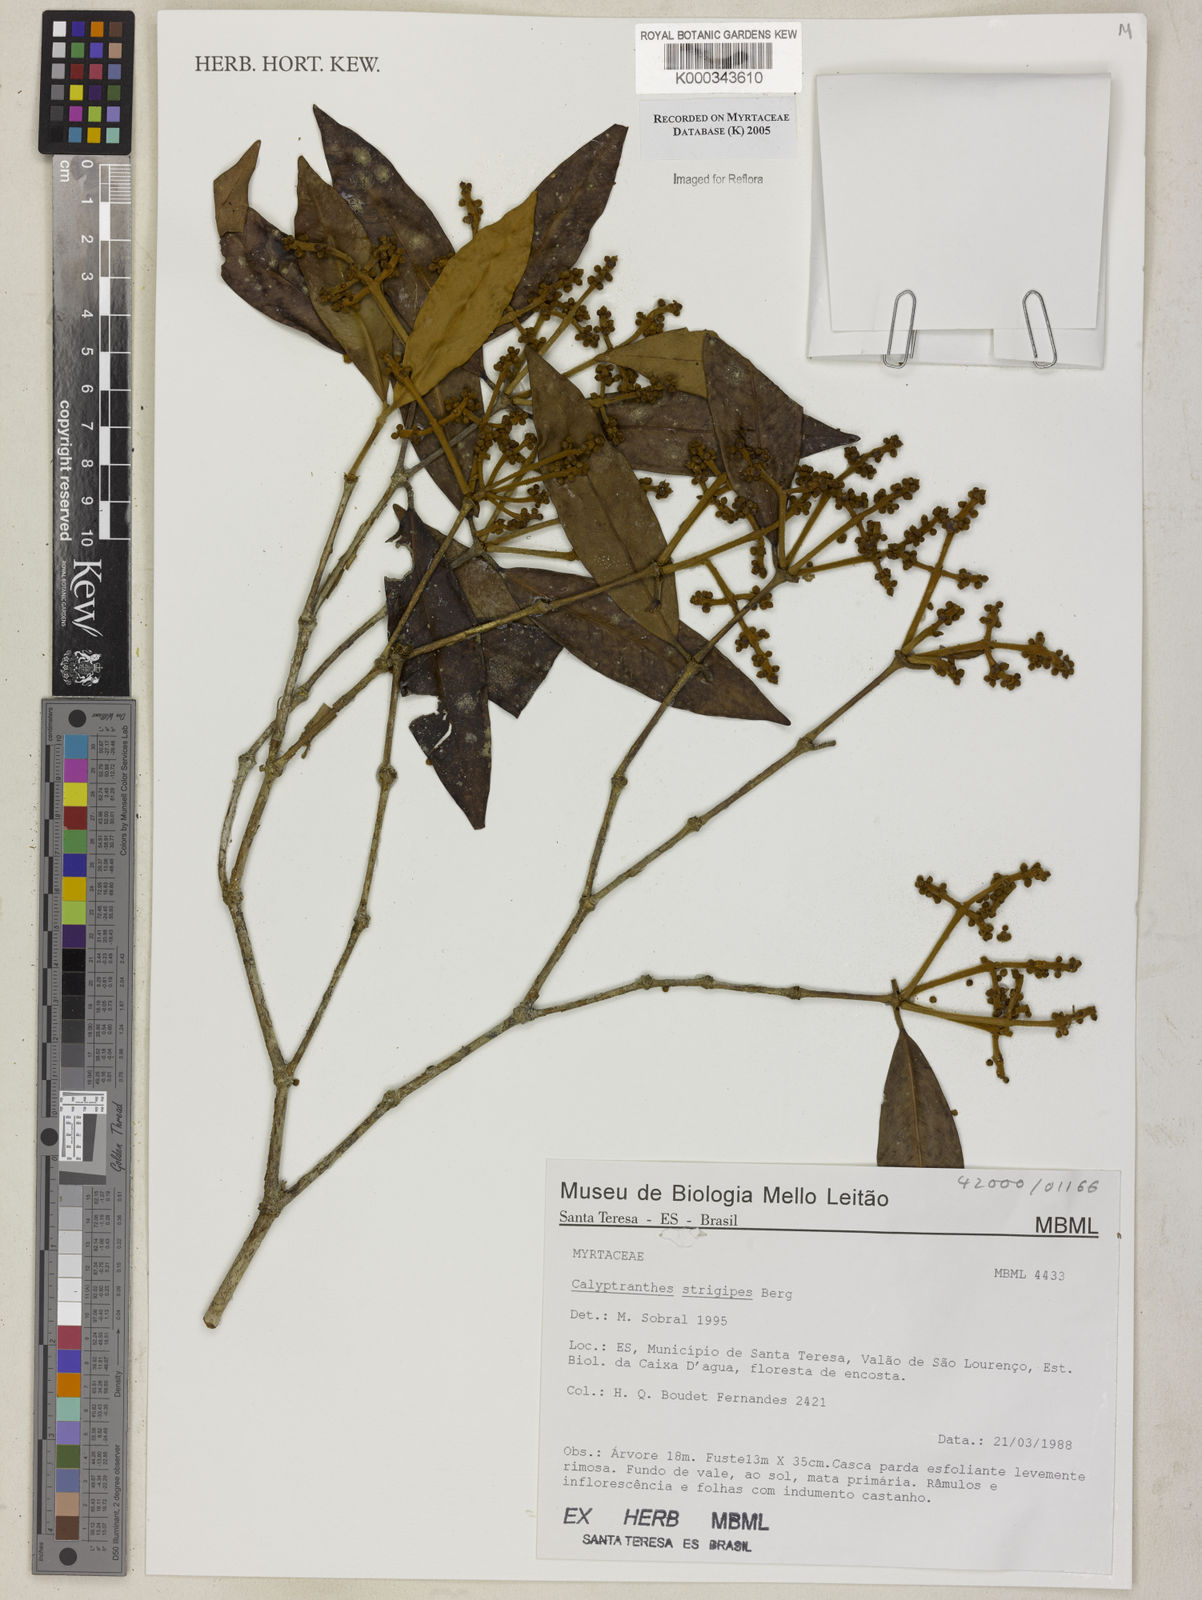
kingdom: Plantae
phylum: Tracheophyta
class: Magnoliopsida
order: Myrtales
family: Myrtaceae
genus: Myrcia
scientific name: Myrcia strigosa
